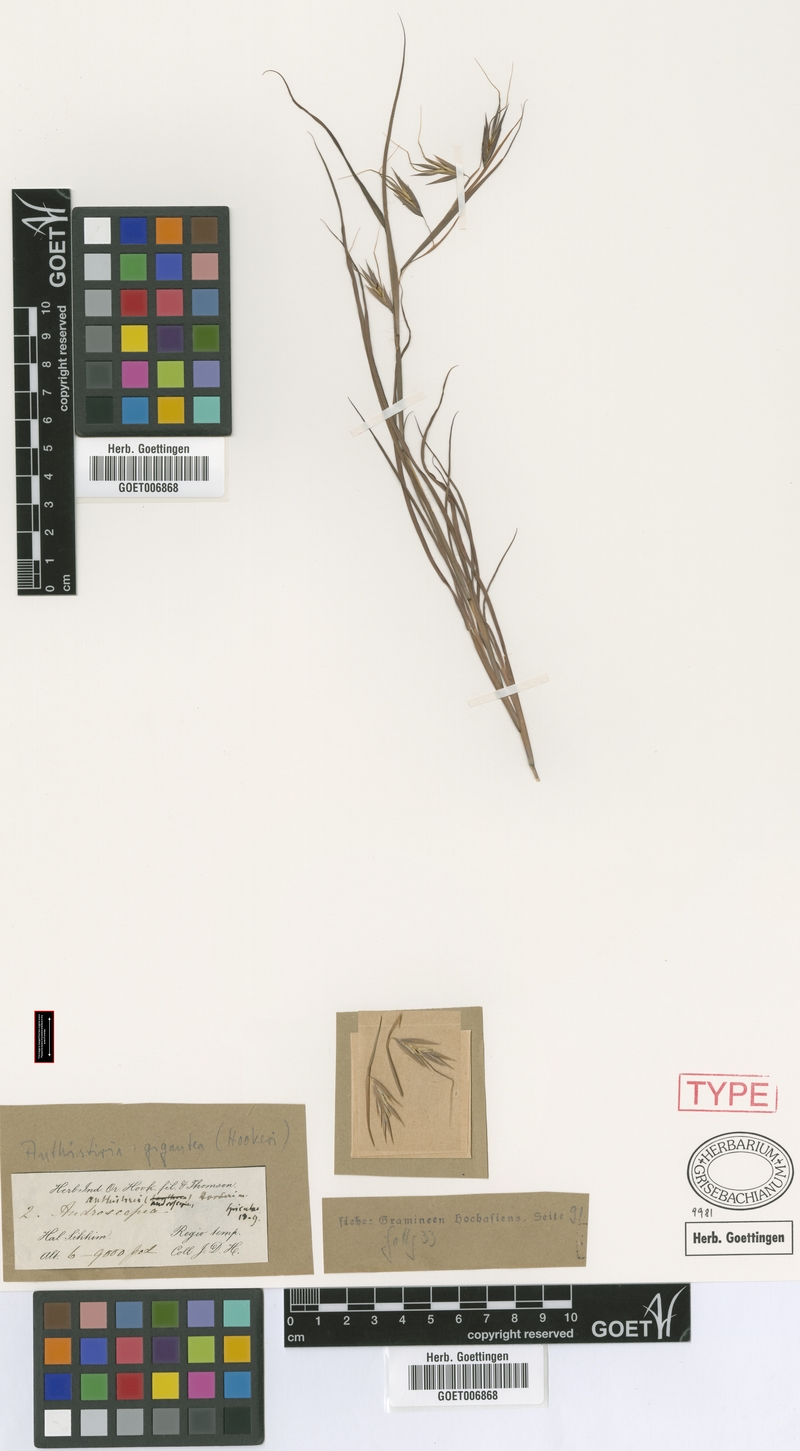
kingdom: Plantae
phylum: Tracheophyta
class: Liliopsida
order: Poales
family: Poaceae
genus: Themeda
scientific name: Themeda hookeri
